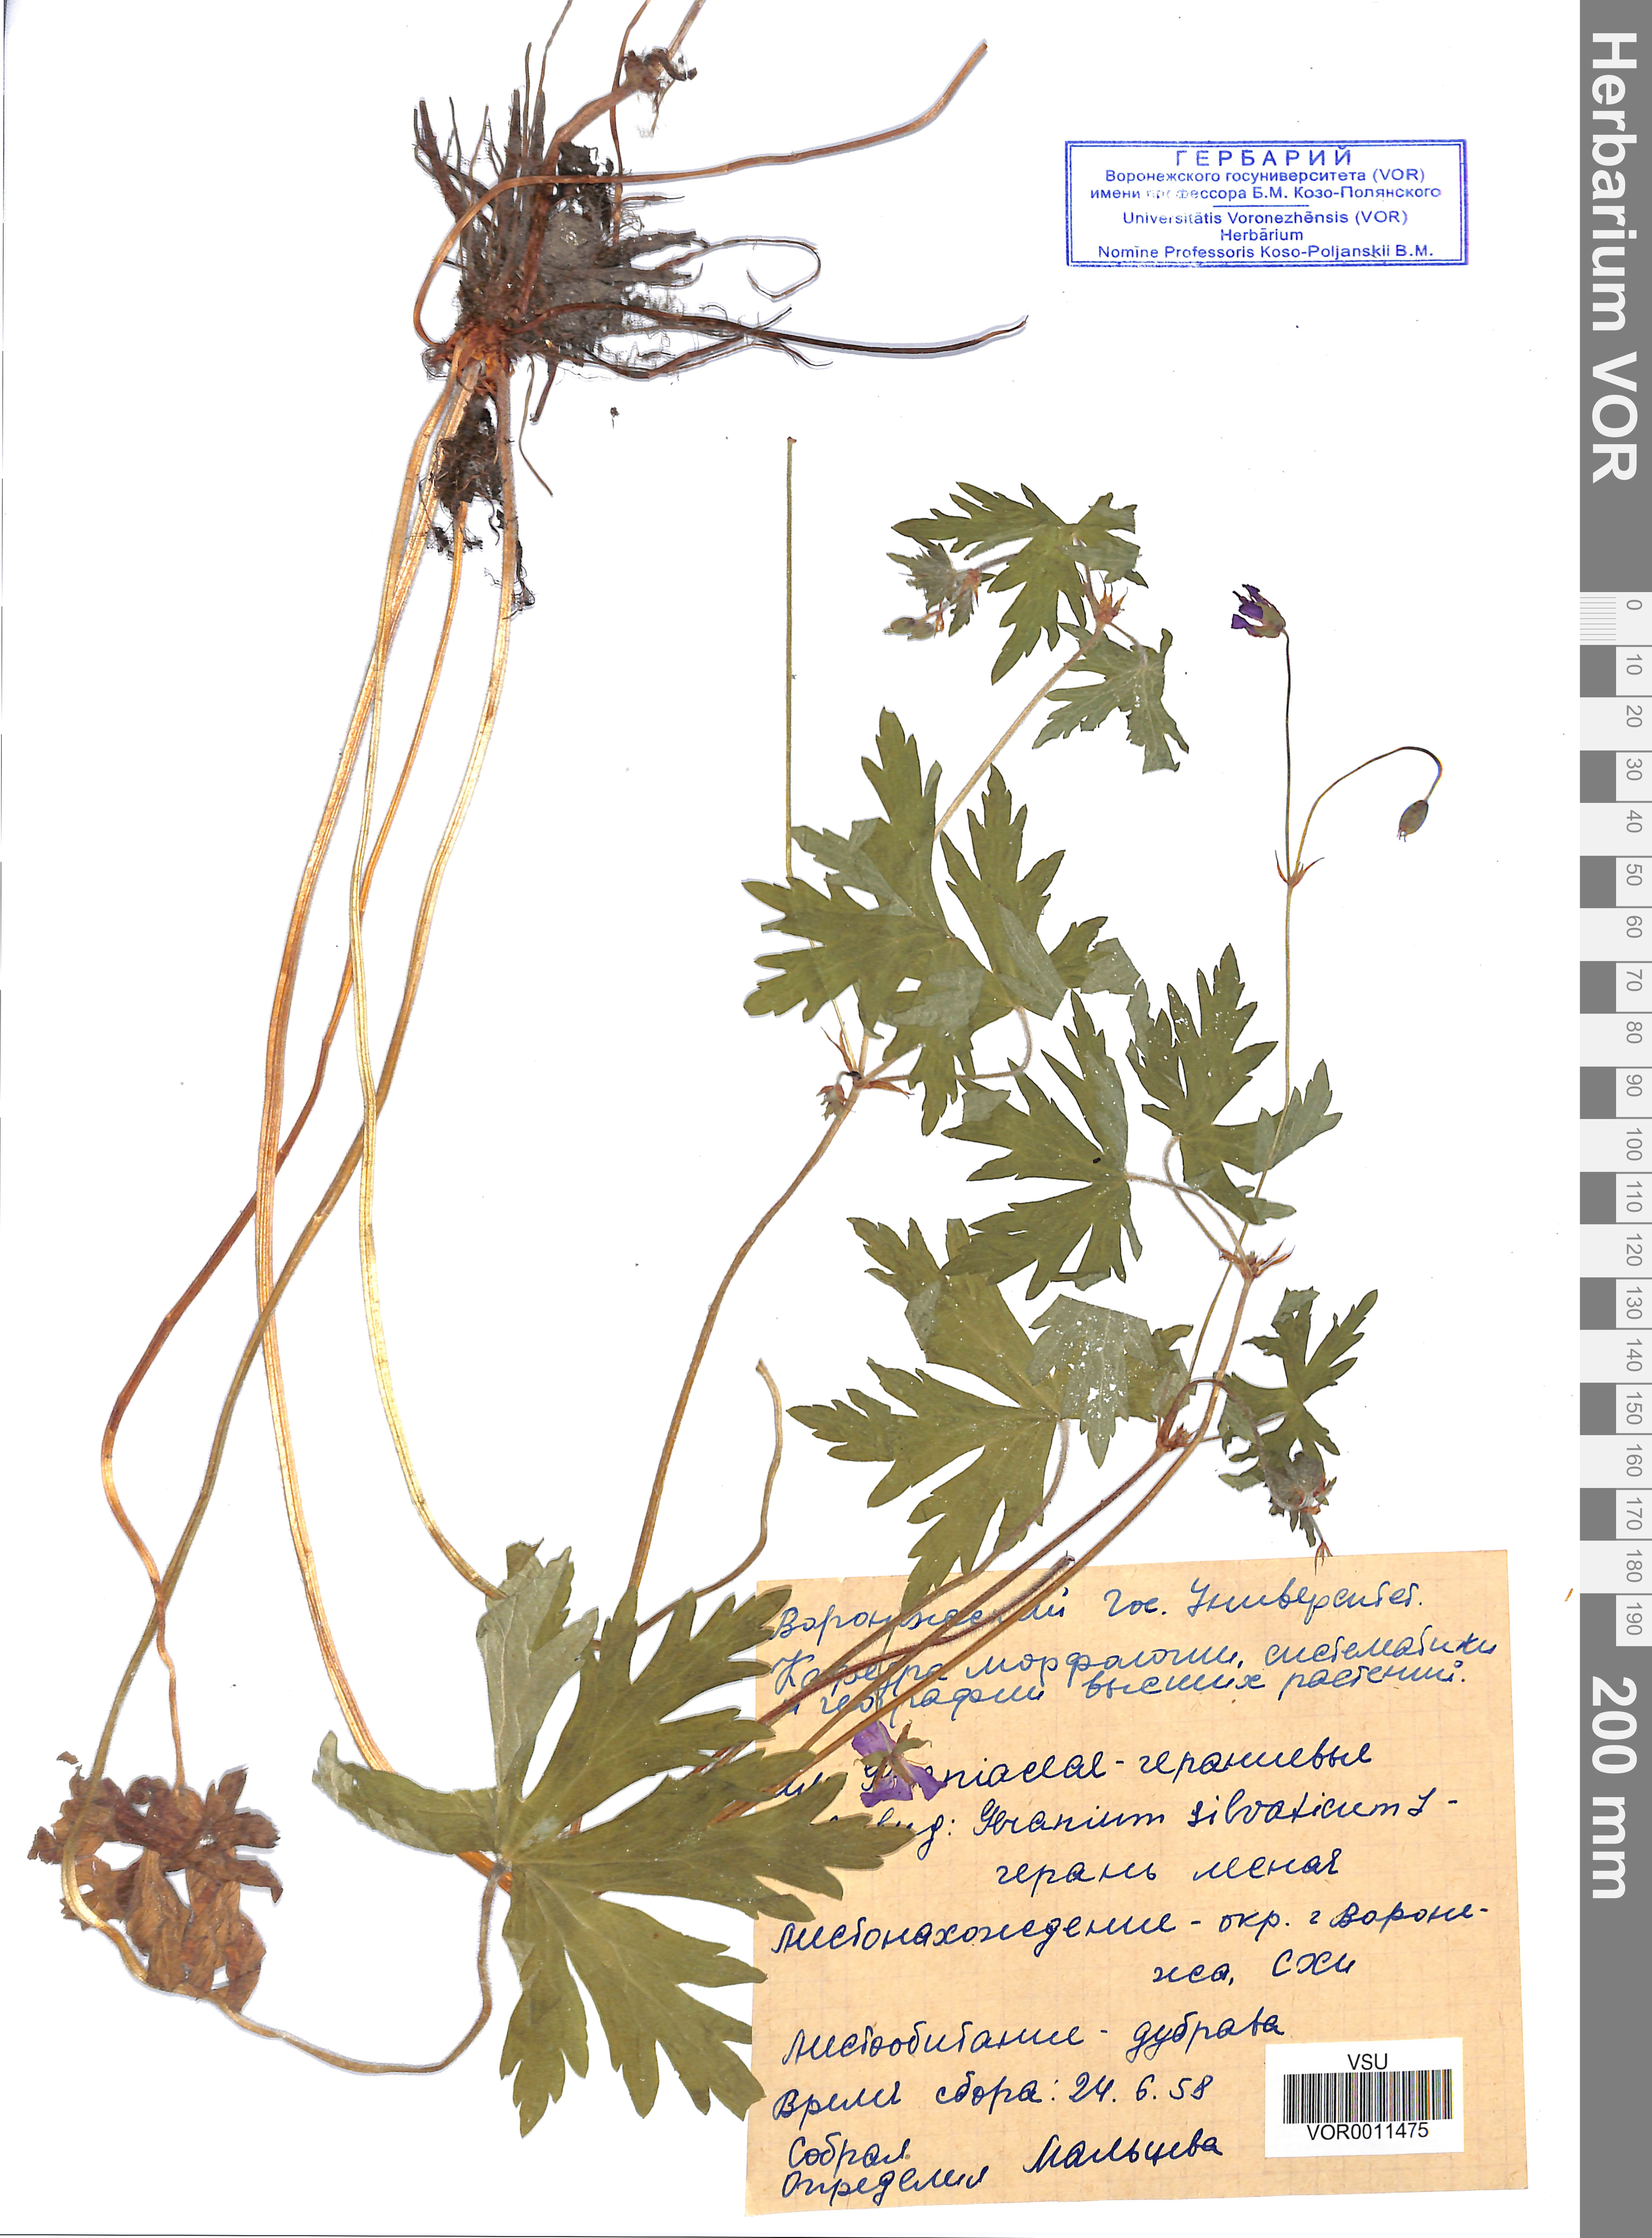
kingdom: Plantae
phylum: Tracheophyta
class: Magnoliopsida
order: Geraniales
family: Geraniaceae
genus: Geranium
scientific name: Geranium sibiricum
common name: Siberian crane's-bill
